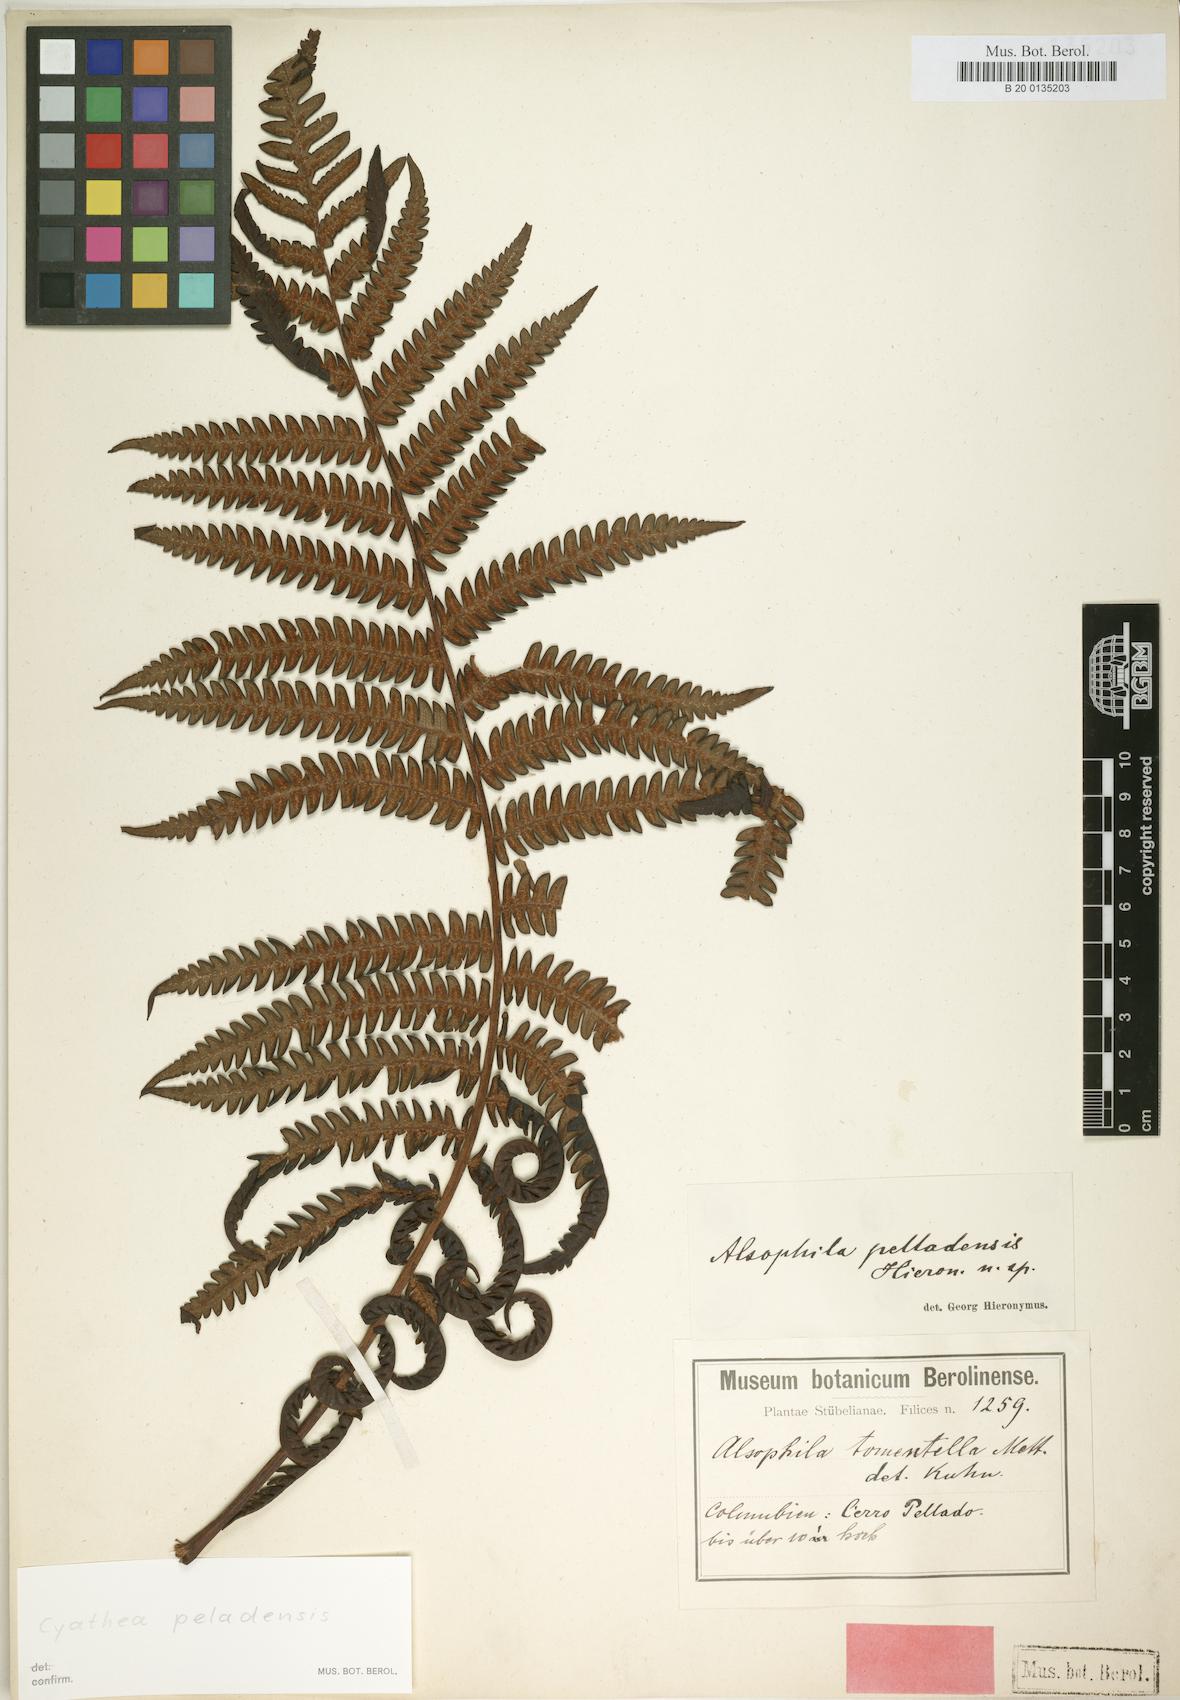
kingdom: Plantae
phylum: Tracheophyta
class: Polypodiopsida
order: Cyatheales
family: Cyatheaceae
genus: Cyathea
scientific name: Cyathea peladensis
